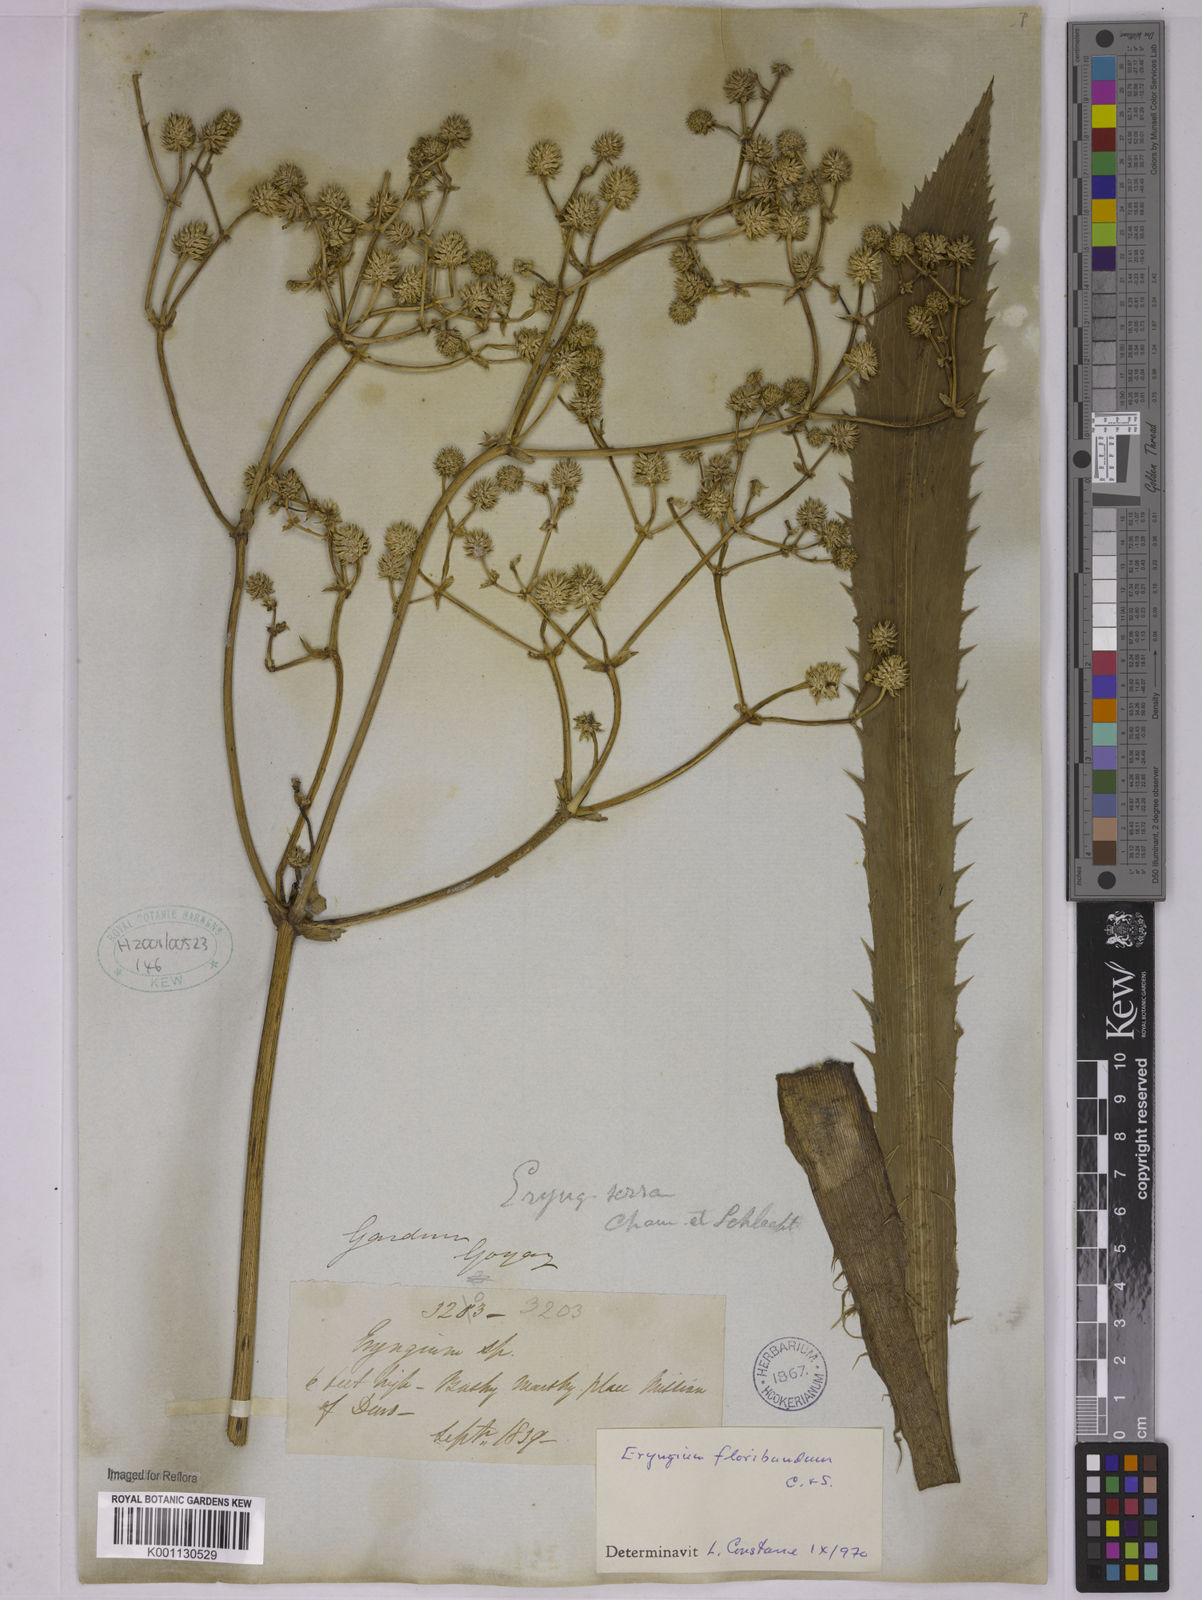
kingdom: Plantae
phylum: Tracheophyta
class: Magnoliopsida
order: Apiales
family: Apiaceae
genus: Eryngium
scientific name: Eryngium floribundum
